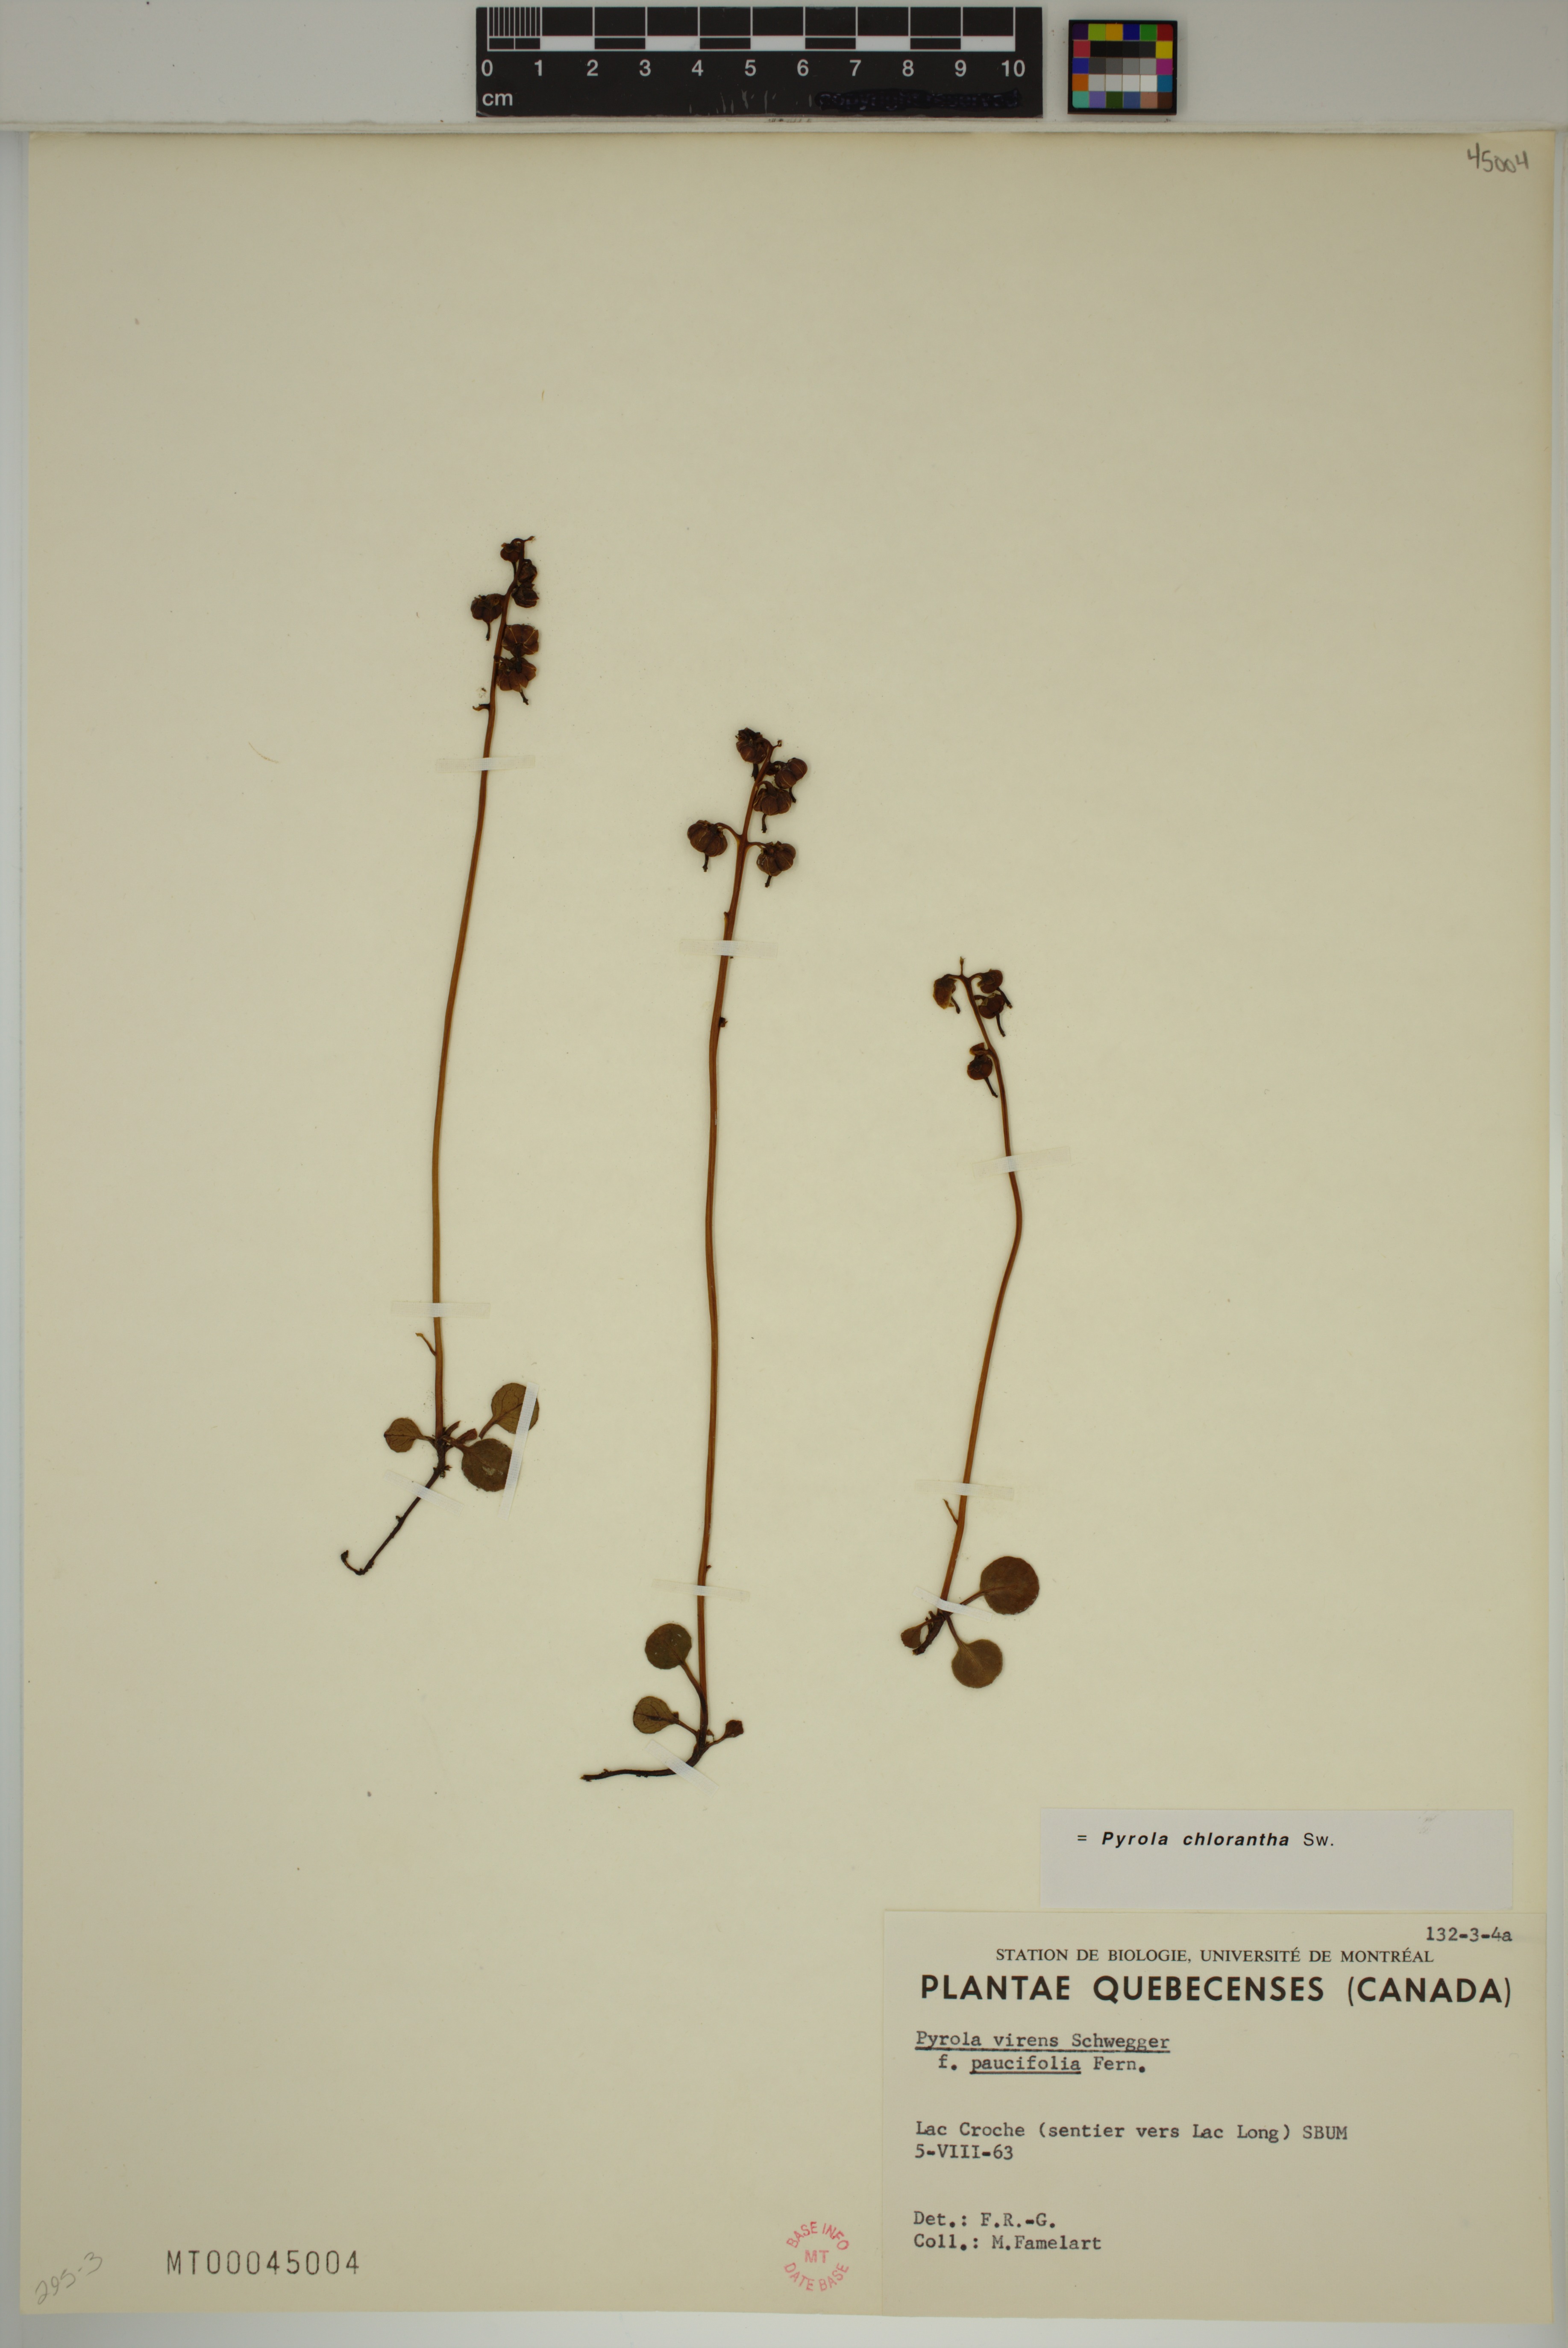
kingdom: Plantae
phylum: Tracheophyta
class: Magnoliopsida
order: Ericales
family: Ericaceae
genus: Pyrola
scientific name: Pyrola chlorantha
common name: Green wintergreen
